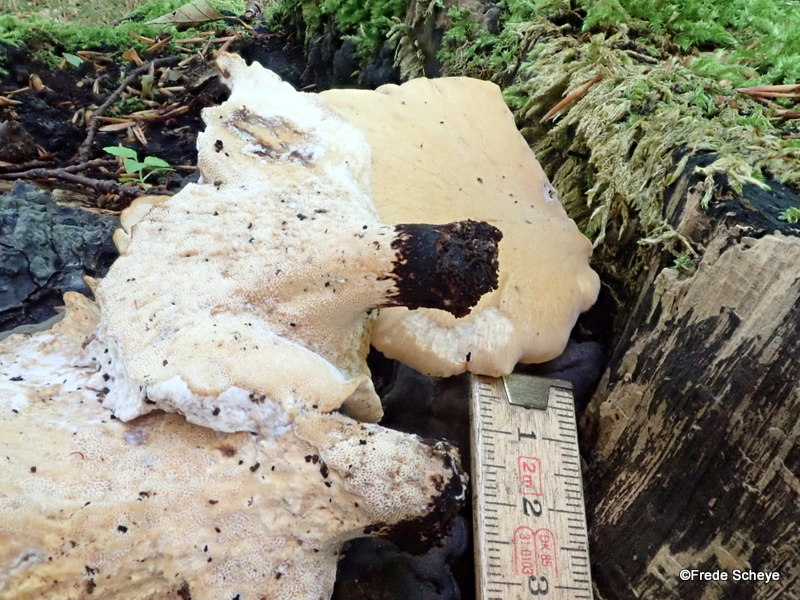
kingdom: Fungi
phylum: Basidiomycota
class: Agaricomycetes
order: Polyporales
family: Polyporaceae
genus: Cerioporus
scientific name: Cerioporus varius
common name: foranderlig stilkporesvamp
